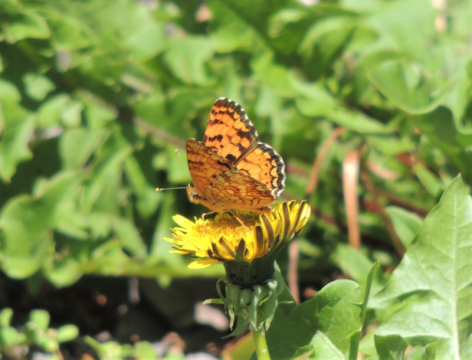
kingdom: Animalia
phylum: Arthropoda
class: Insecta
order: Lepidoptera
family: Nymphalidae
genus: Eresia
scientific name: Eresia aveyrona
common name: Mylitta Crescent
